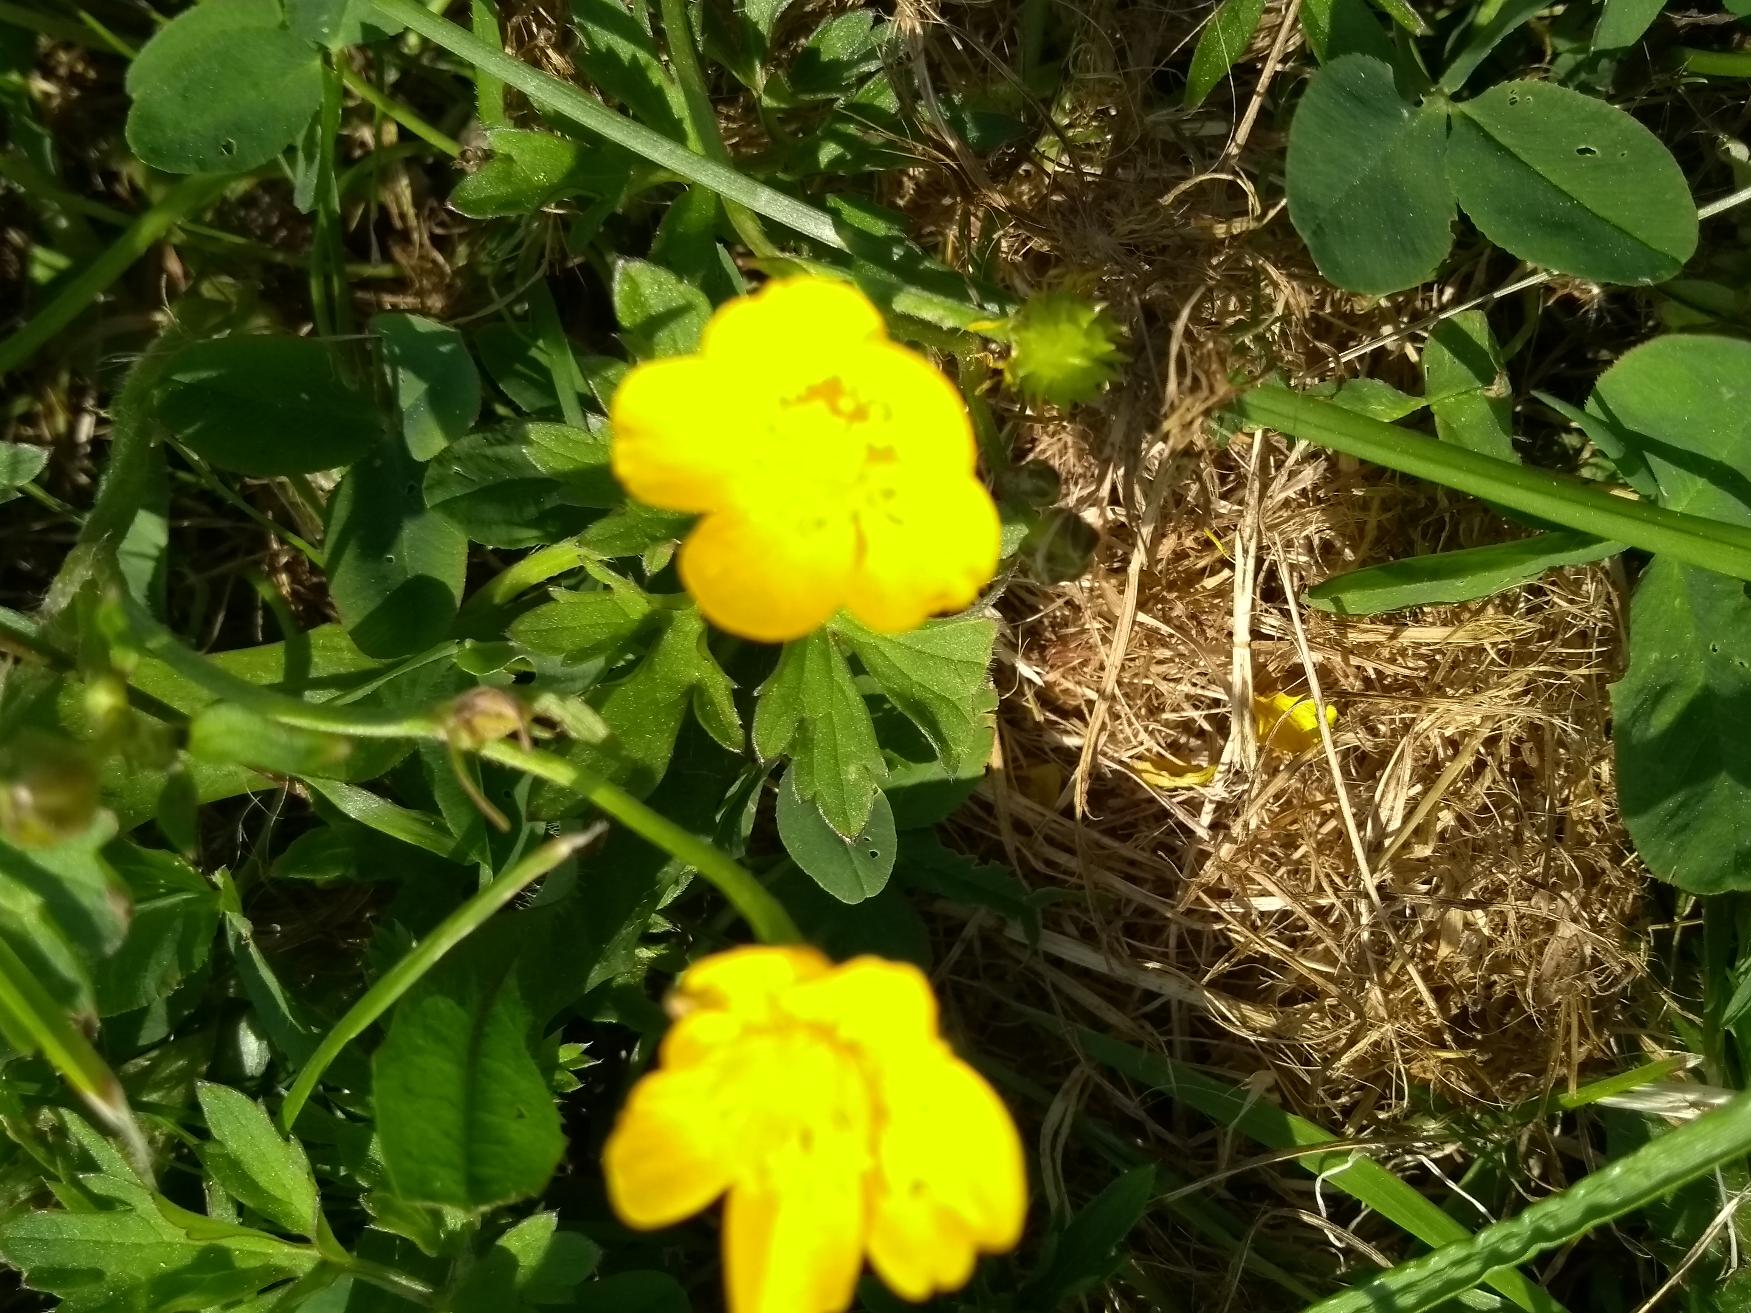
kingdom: Plantae
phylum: Tracheophyta
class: Magnoliopsida
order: Ranunculales
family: Ranunculaceae
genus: Ranunculus
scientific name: Ranunculus repens
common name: Lav ranunkel
